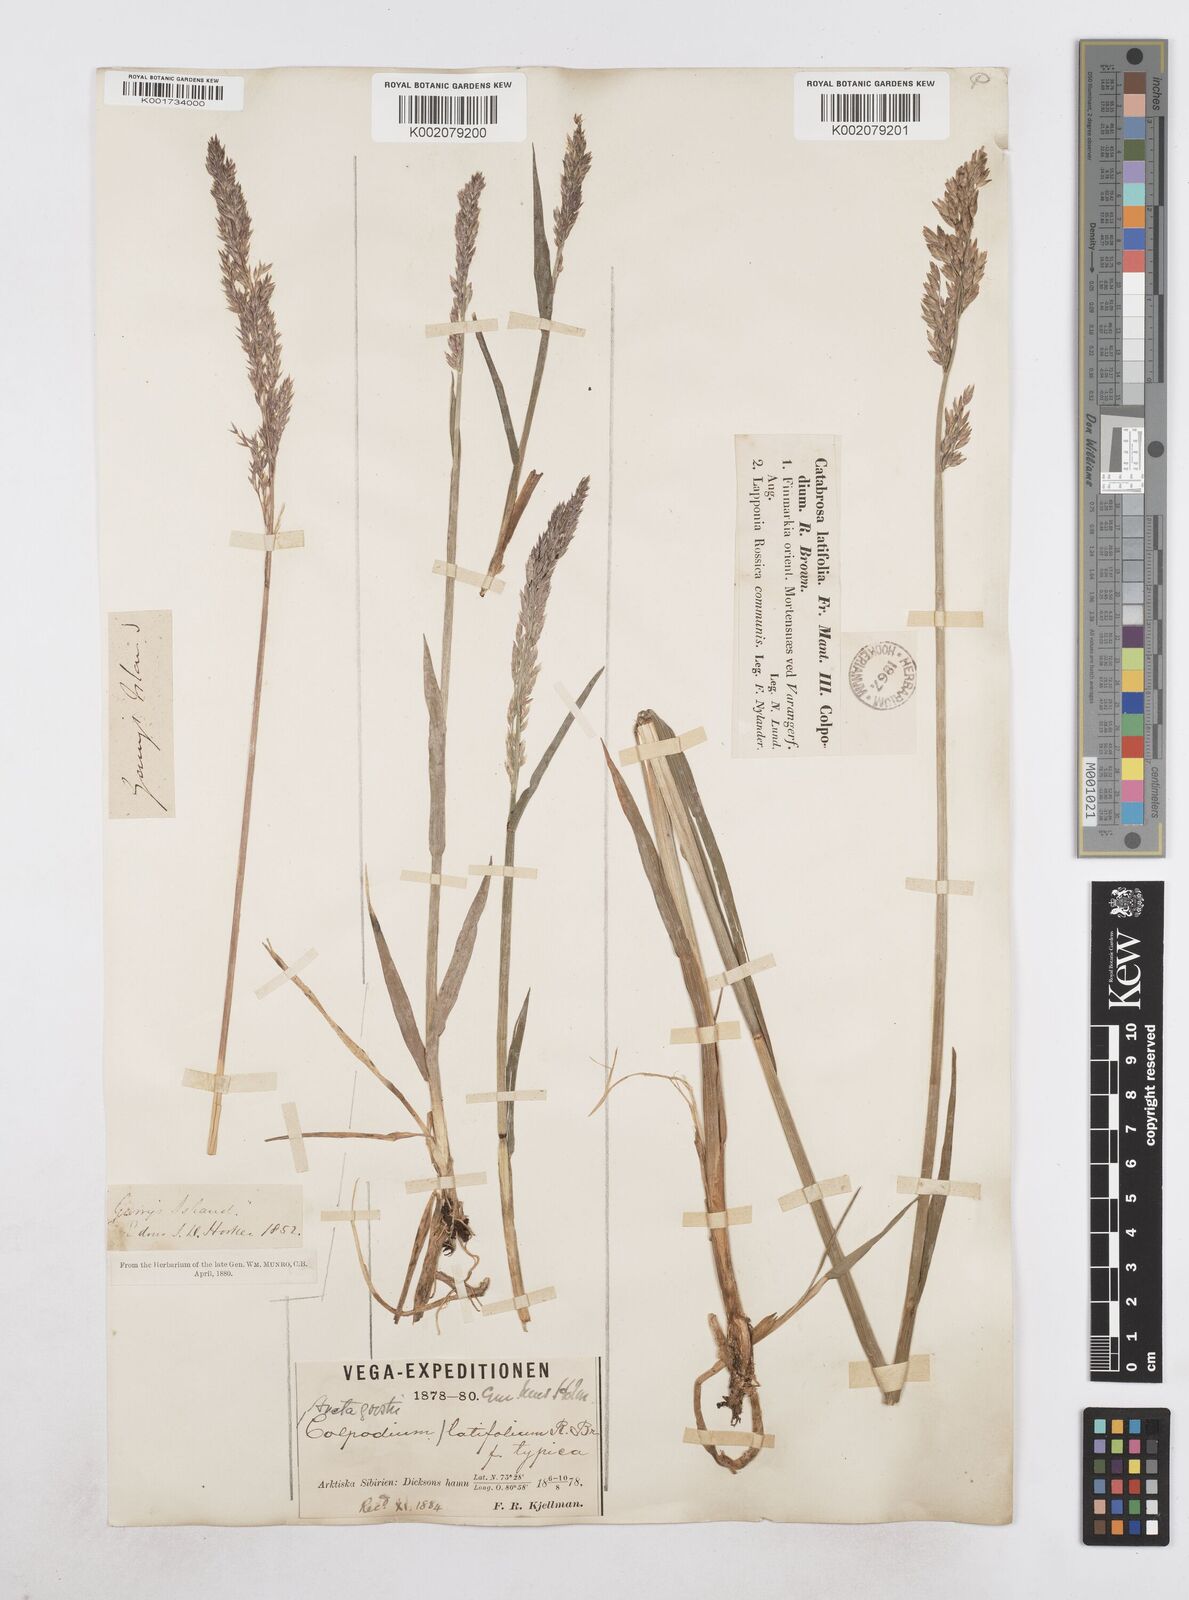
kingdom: Plantae
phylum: Tracheophyta
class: Liliopsida
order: Poales
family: Poaceae
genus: Arctagrostis
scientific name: Arctagrostis latifolia
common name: Arctic grass
